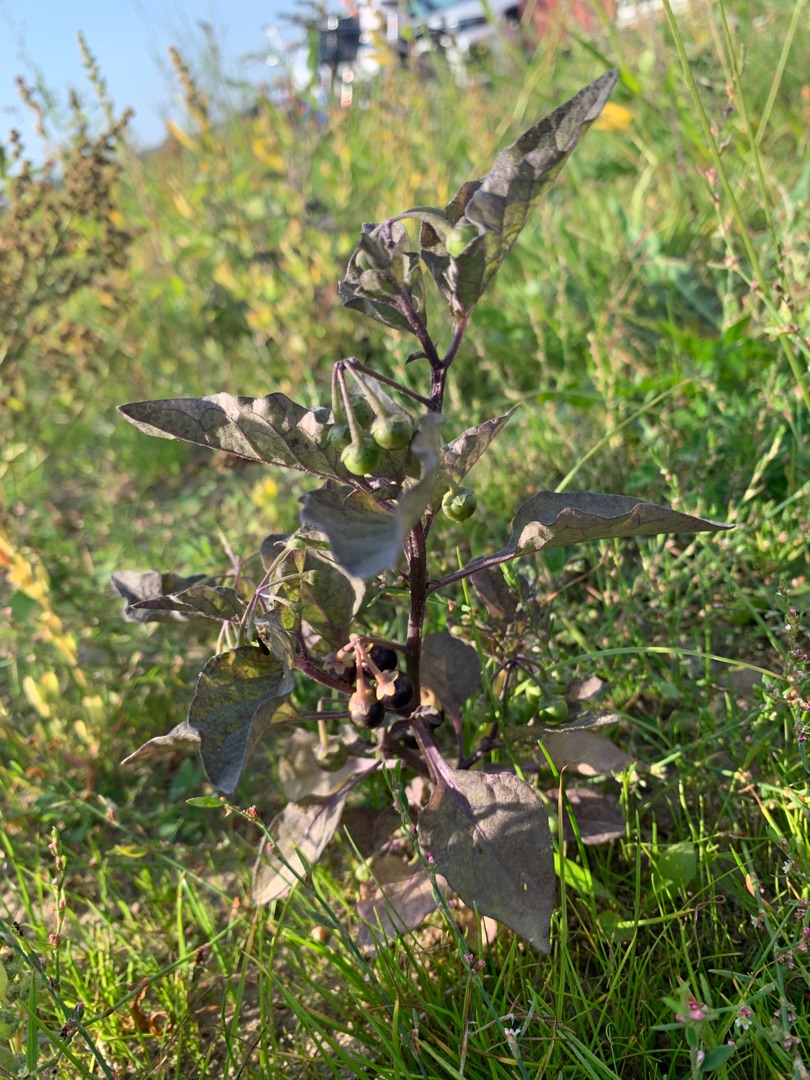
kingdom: Plantae
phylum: Tracheophyta
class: Magnoliopsida
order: Solanales
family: Solanaceae
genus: Solanum
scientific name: Solanum nigrum
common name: Sort natskygge
